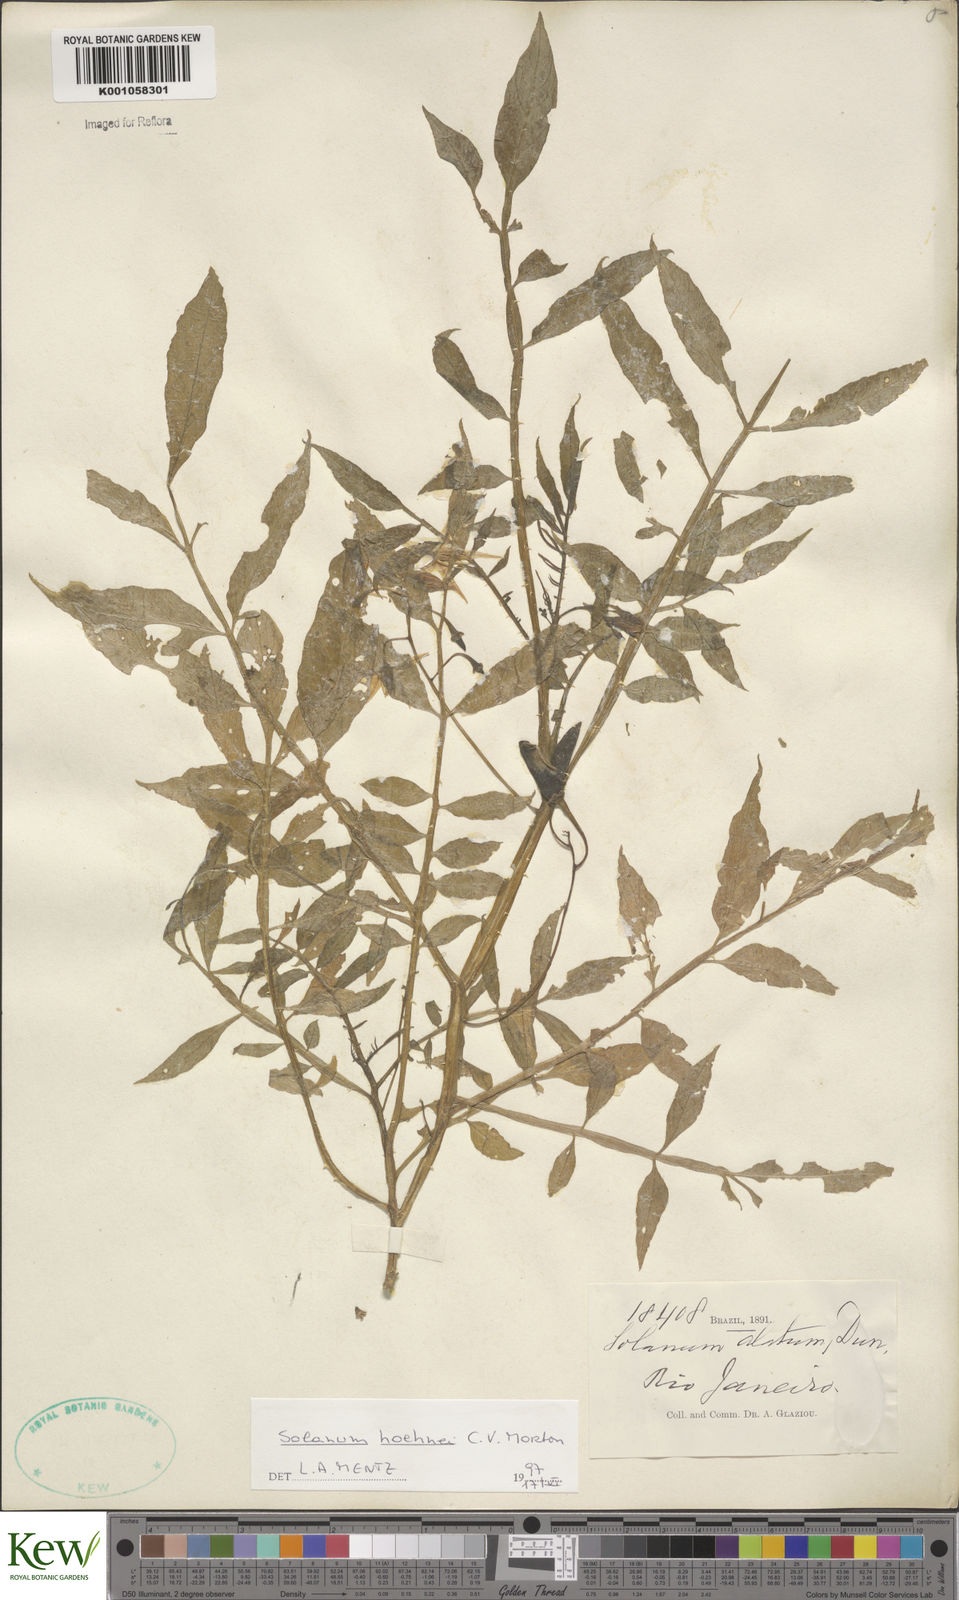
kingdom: Plantae
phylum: Tracheophyta
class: Magnoliopsida
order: Solanales
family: Solanaceae
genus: Solanum
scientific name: Solanum hoehnei
